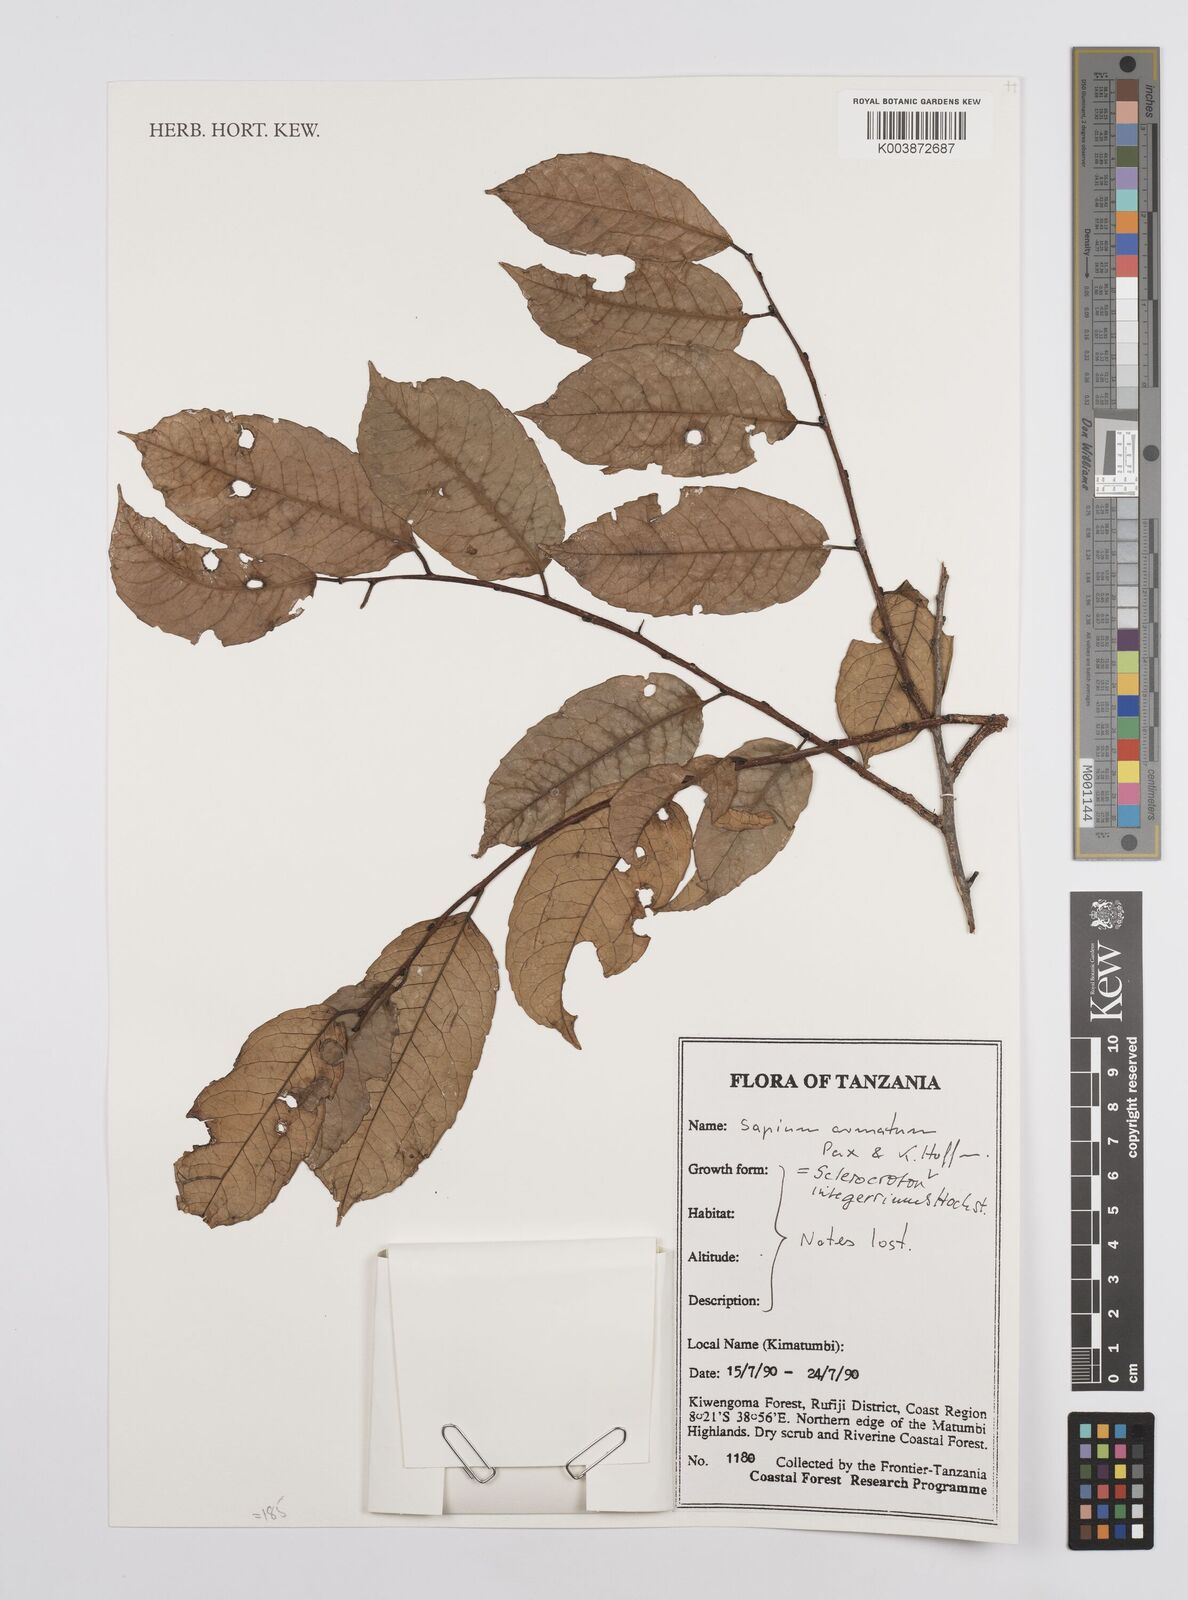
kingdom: Plantae
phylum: Tracheophyta
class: Magnoliopsida
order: Malpighiales
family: Euphorbiaceae
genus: Sclerocroton
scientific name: Sclerocroton integerrimus
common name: Duiker berry
